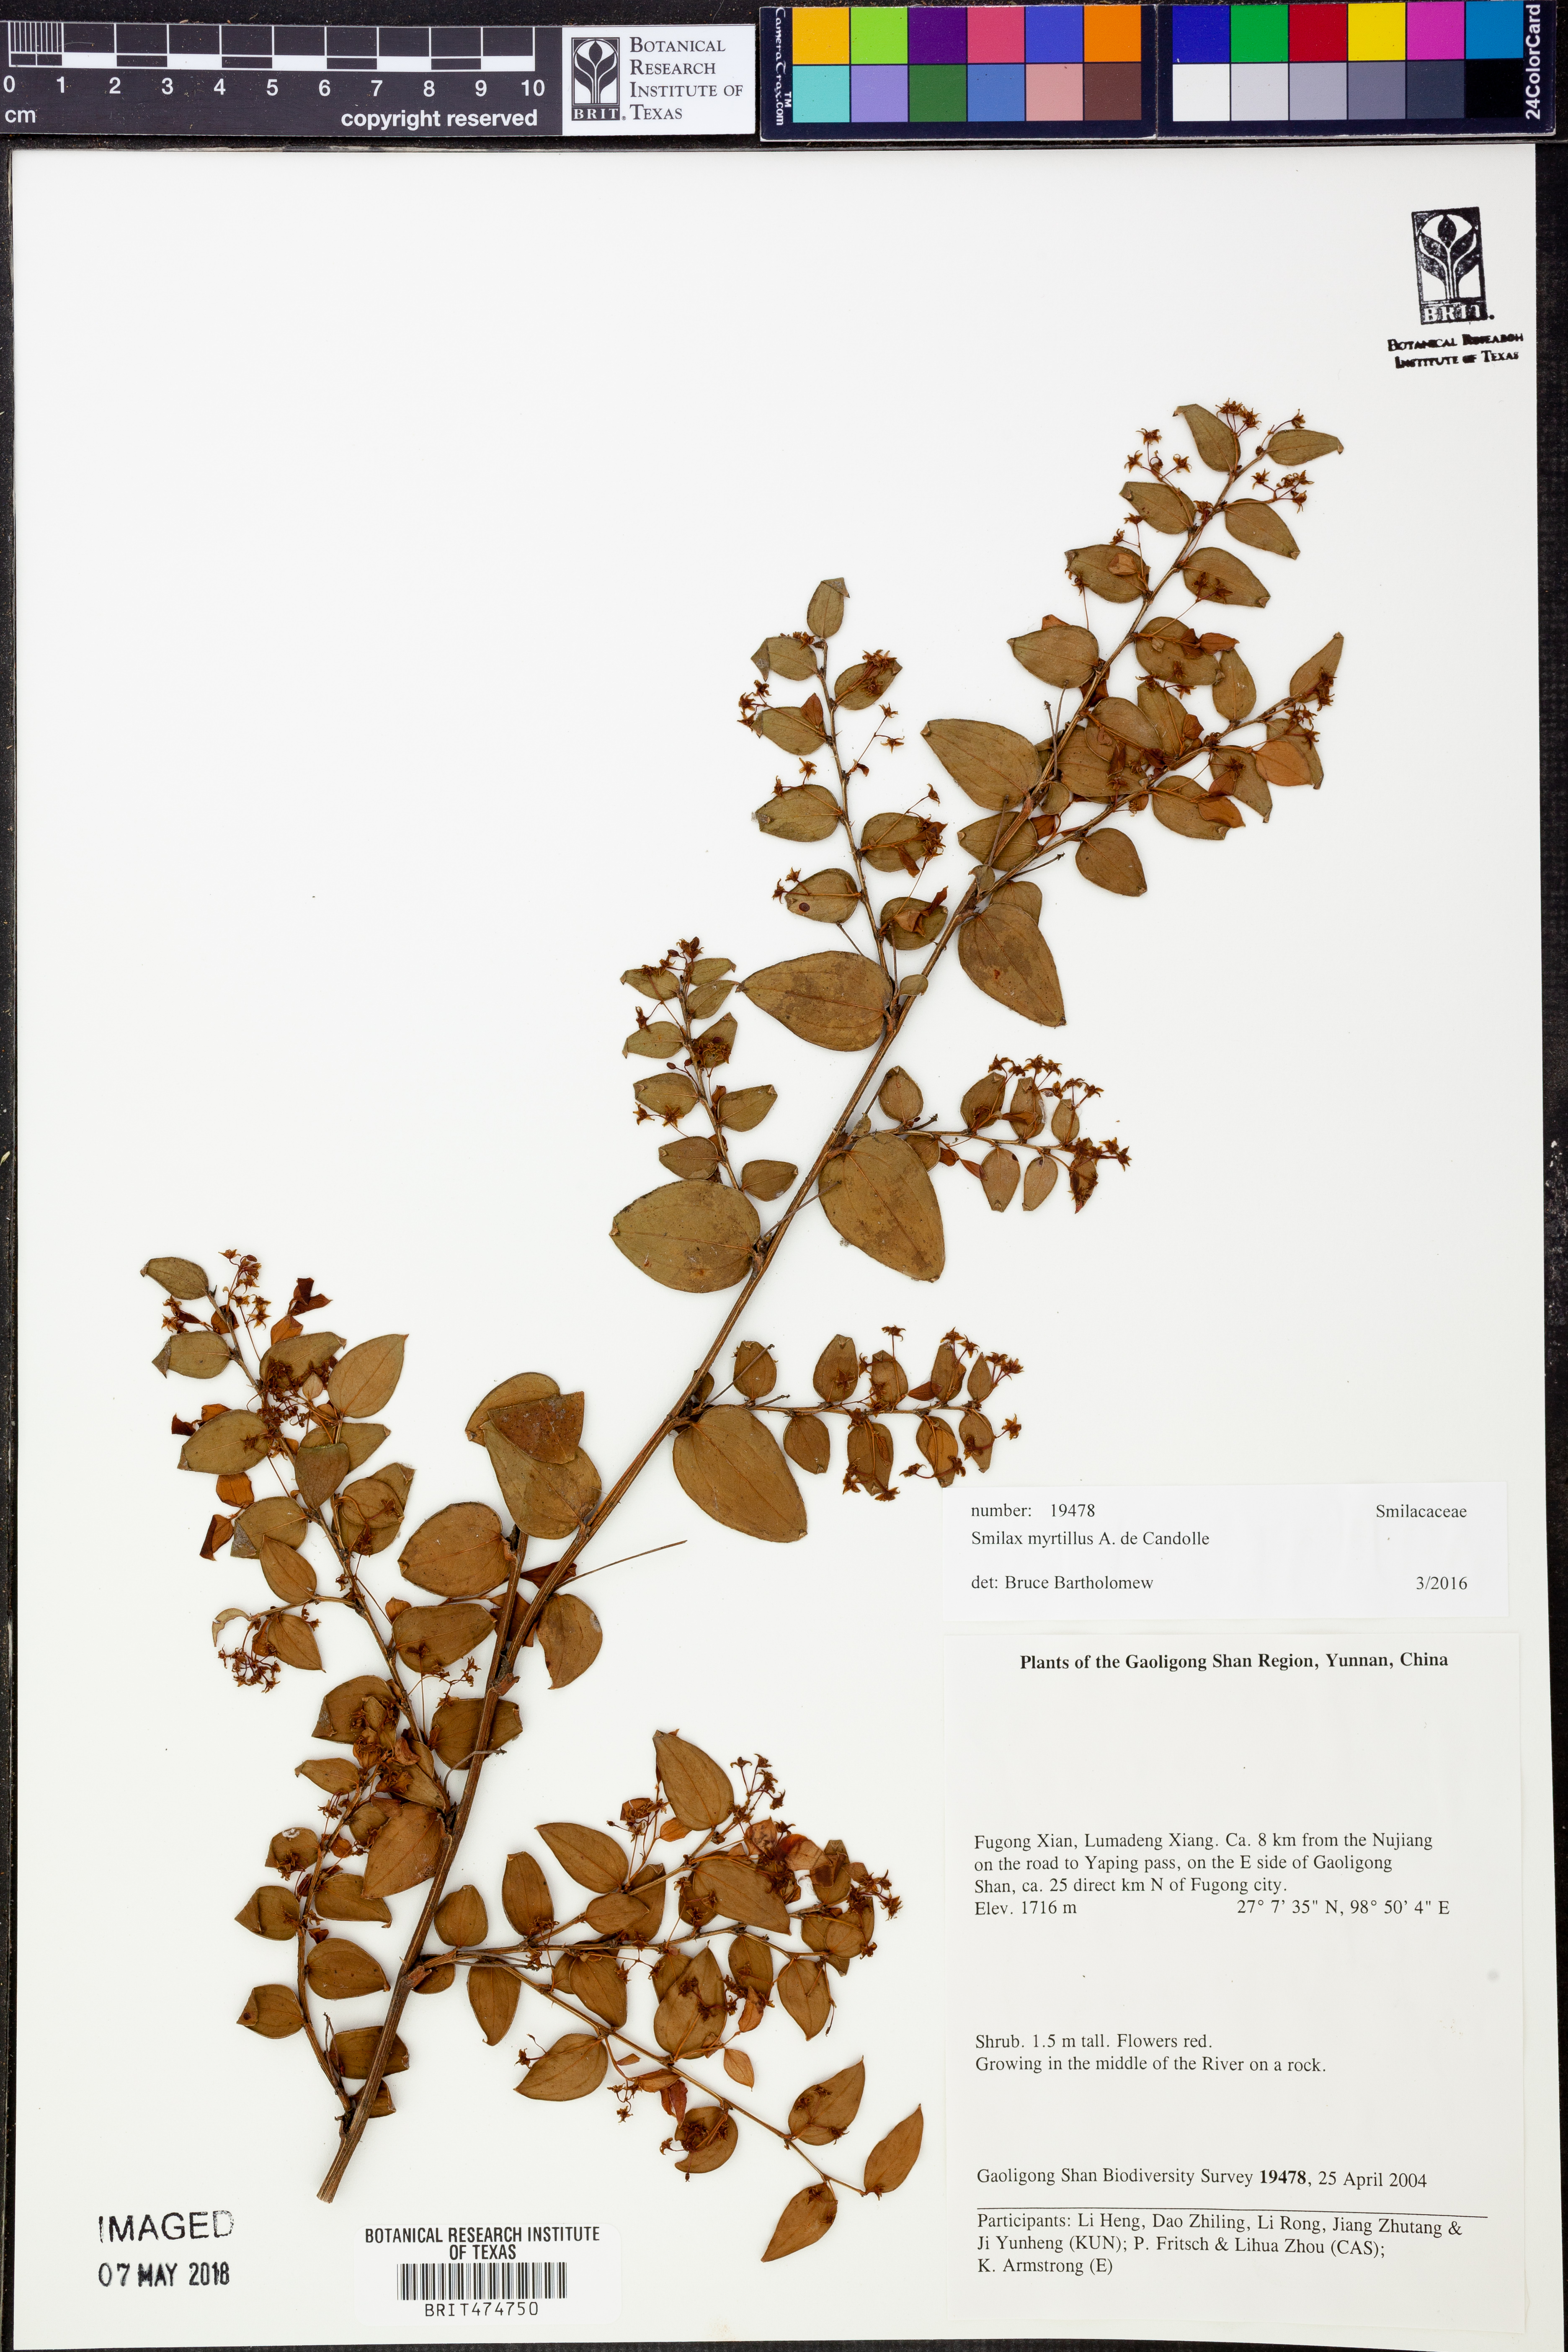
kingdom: Plantae
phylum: Tracheophyta
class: Liliopsida
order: Liliales
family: Smilacaceae
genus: Smilax
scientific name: Smilax myrtillus
